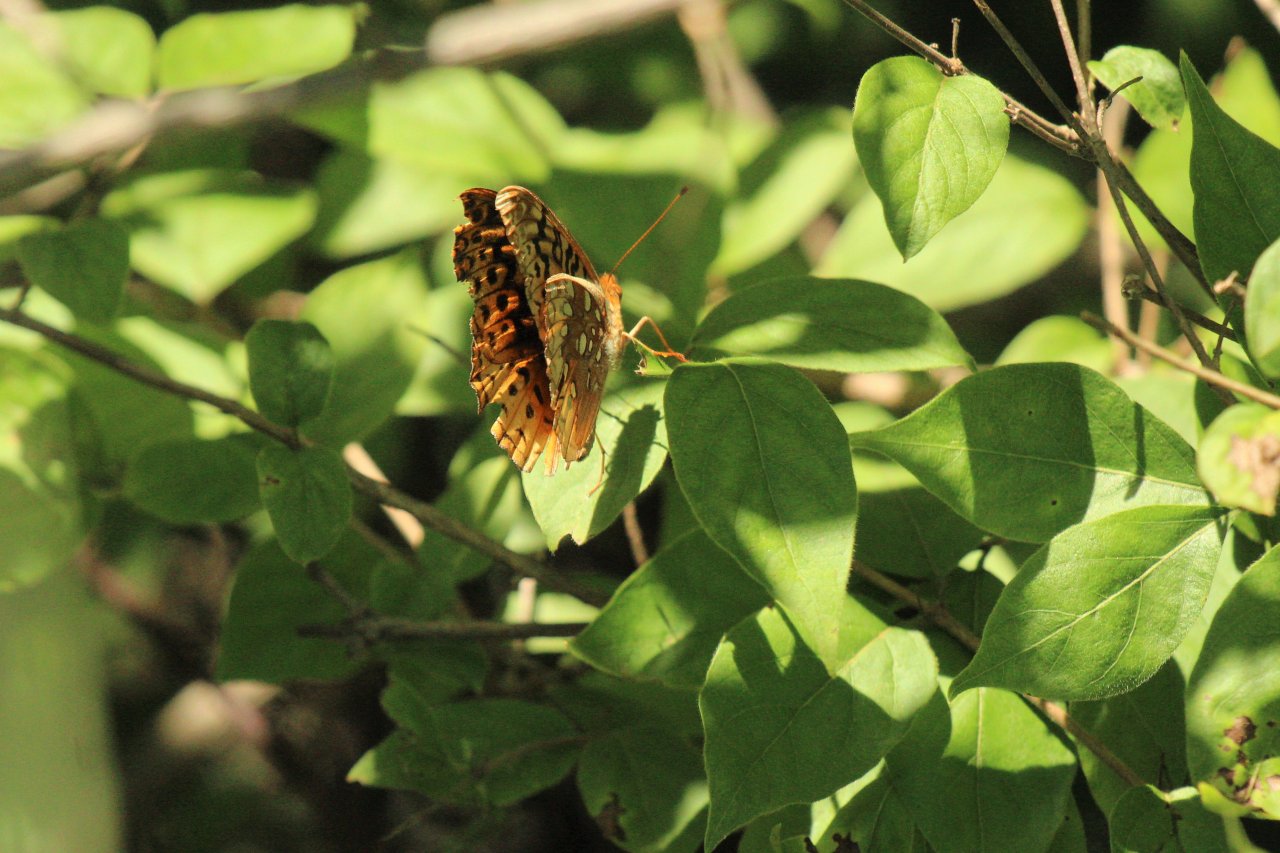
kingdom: Animalia
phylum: Arthropoda
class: Insecta
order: Lepidoptera
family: Nymphalidae
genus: Speyeria
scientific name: Speyeria cybele
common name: Great Spangled Fritillary
